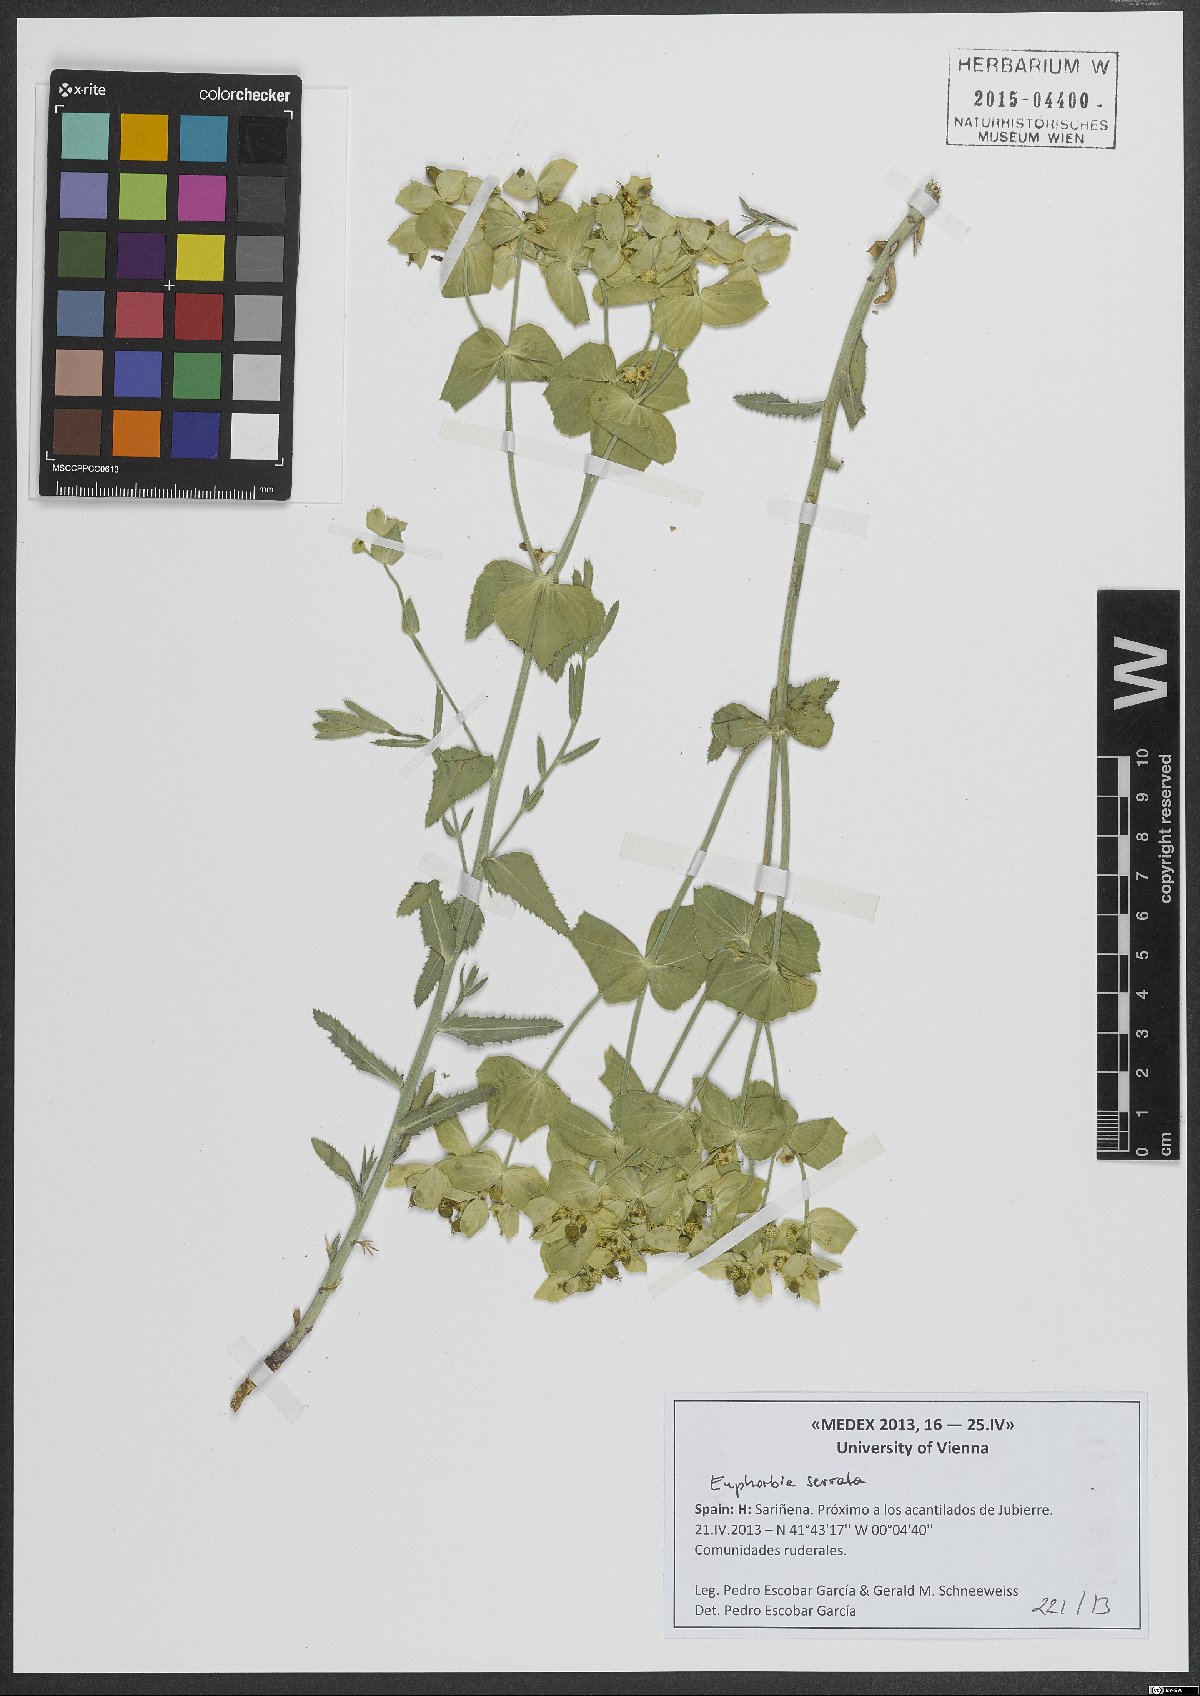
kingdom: Plantae
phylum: Tracheophyta
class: Magnoliopsida
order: Malpighiales
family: Euphorbiaceae
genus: Euphorbia
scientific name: Euphorbia serrata
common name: Serrate spurge
